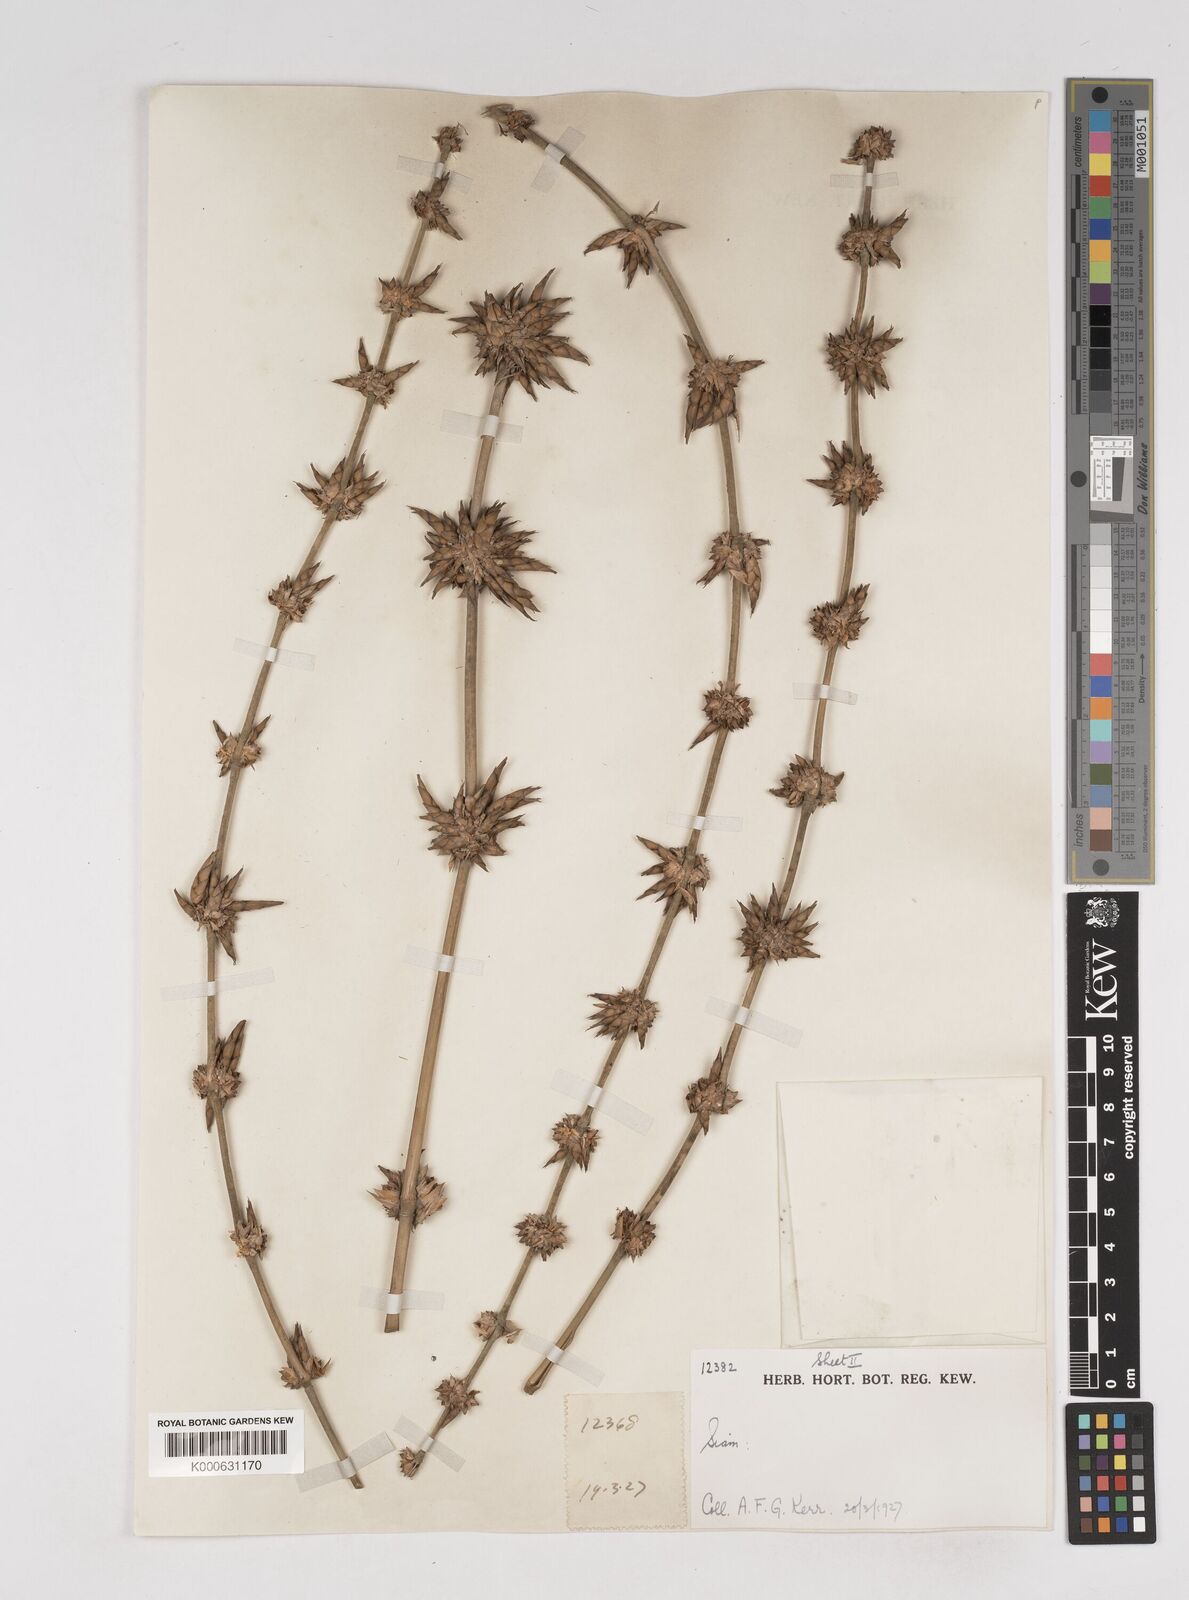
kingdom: Plantae
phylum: Tracheophyta
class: Liliopsida
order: Poales
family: Poaceae
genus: Gigantochloa
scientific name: Gigantochloa
